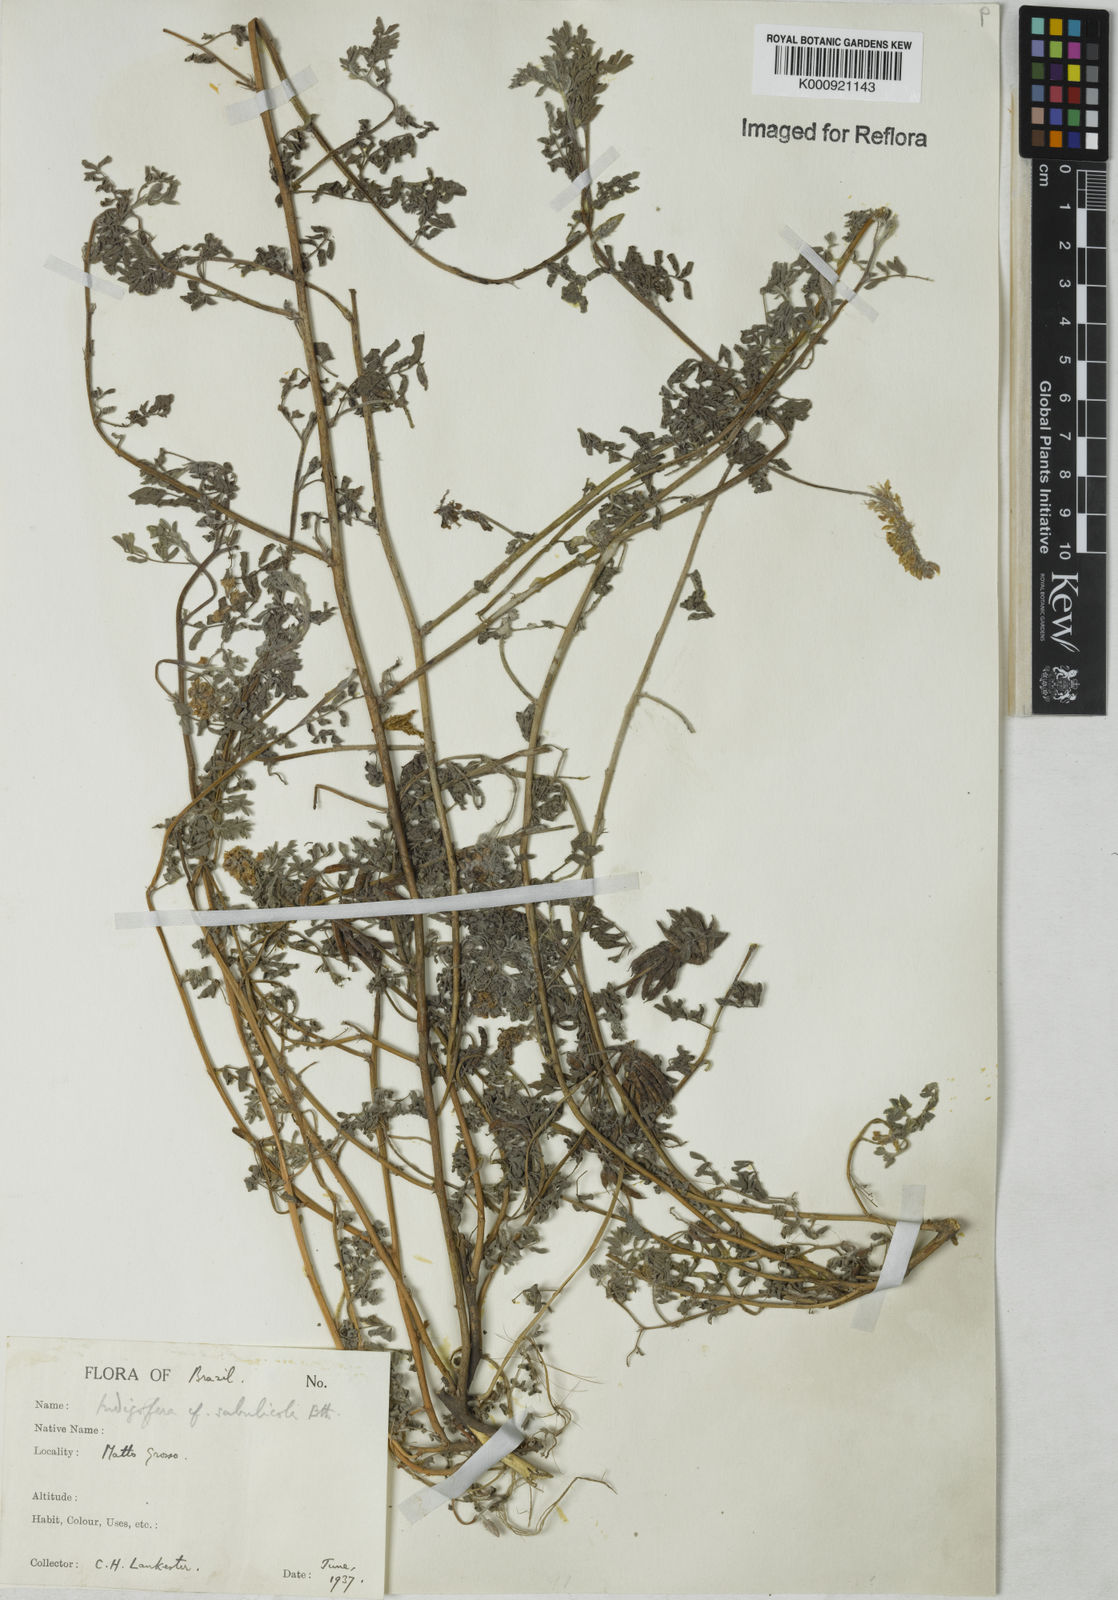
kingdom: Plantae
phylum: Tracheophyta
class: Magnoliopsida
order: Fabales
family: Fabaceae
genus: Indigofera
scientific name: Indigofera microcarpa
